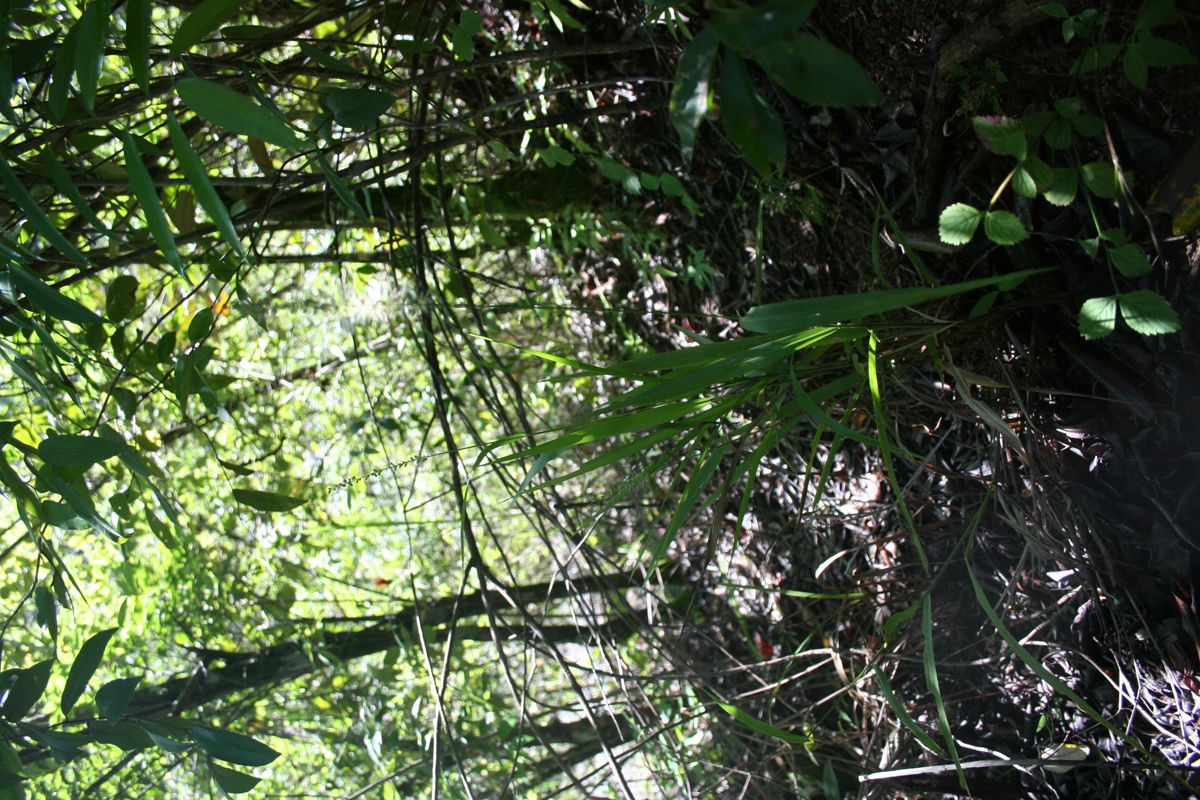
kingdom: Plantae
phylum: Tracheophyta
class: Liliopsida
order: Poales
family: Poaceae
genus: Setaria
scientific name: Setaria tenax
